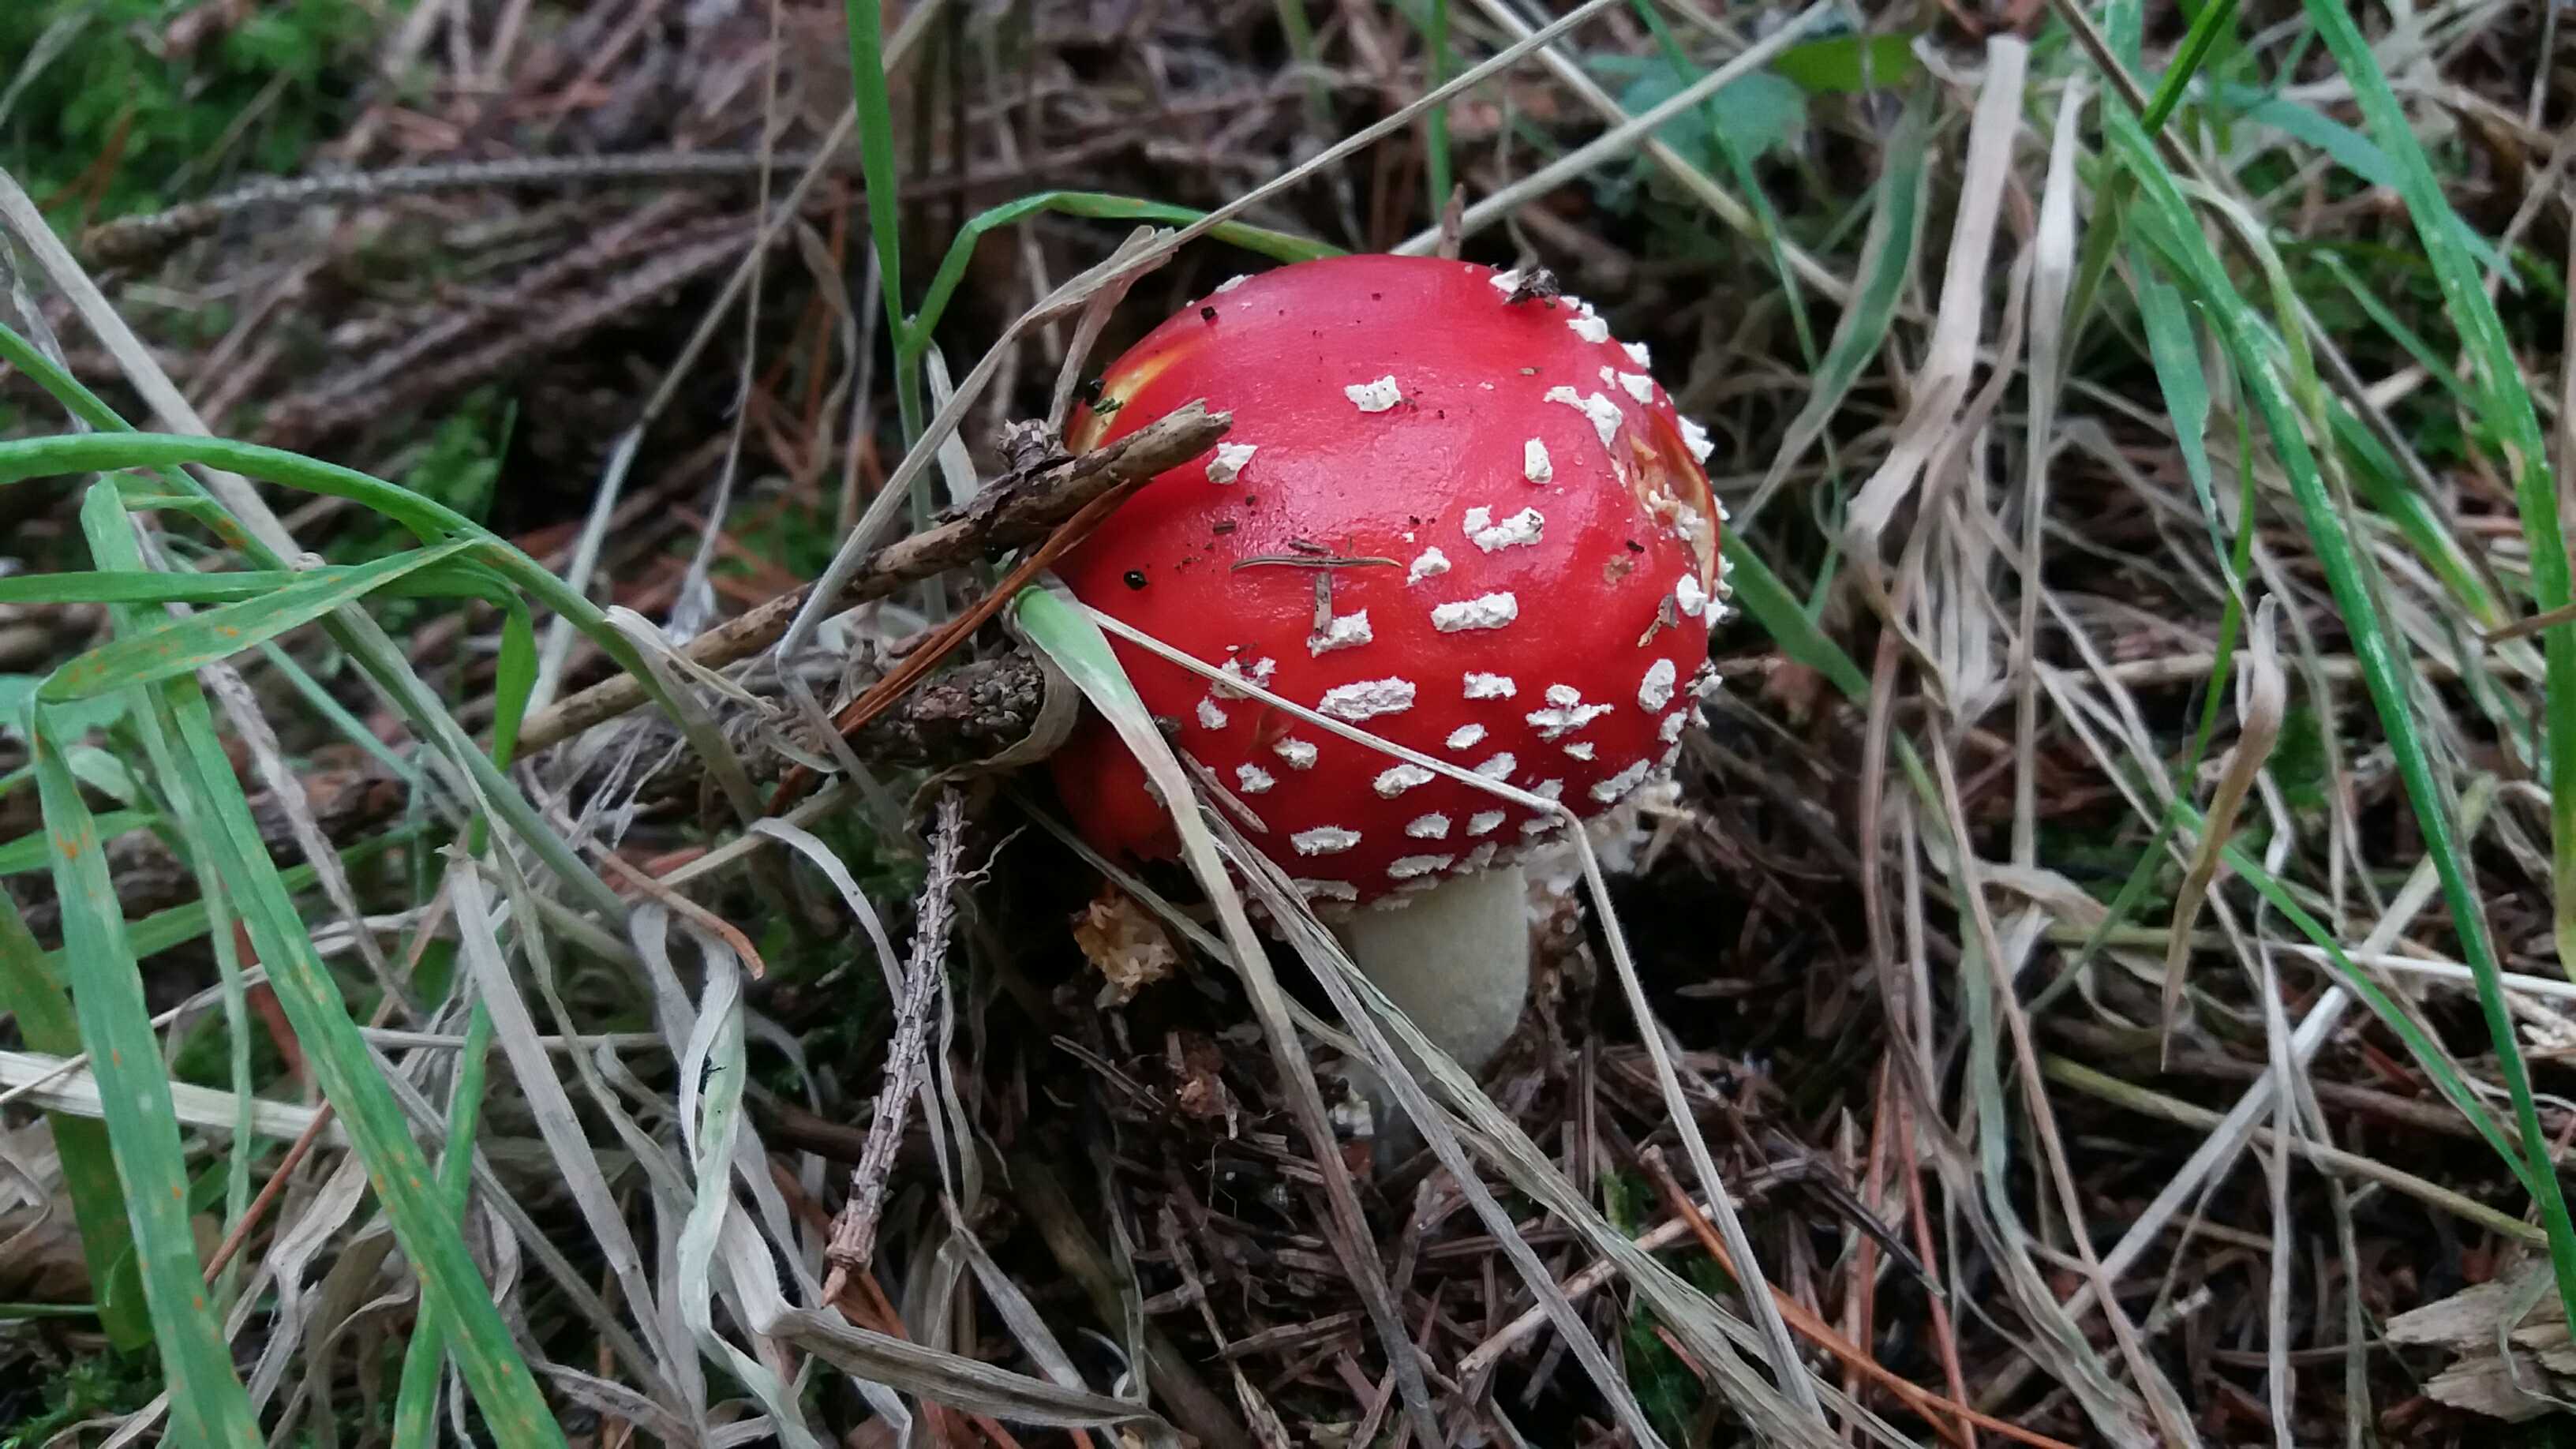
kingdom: Fungi
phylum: Basidiomycota
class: Agaricomycetes
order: Agaricales
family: Amanitaceae
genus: Amanita
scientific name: Amanita muscaria
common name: rød fluesvamp
